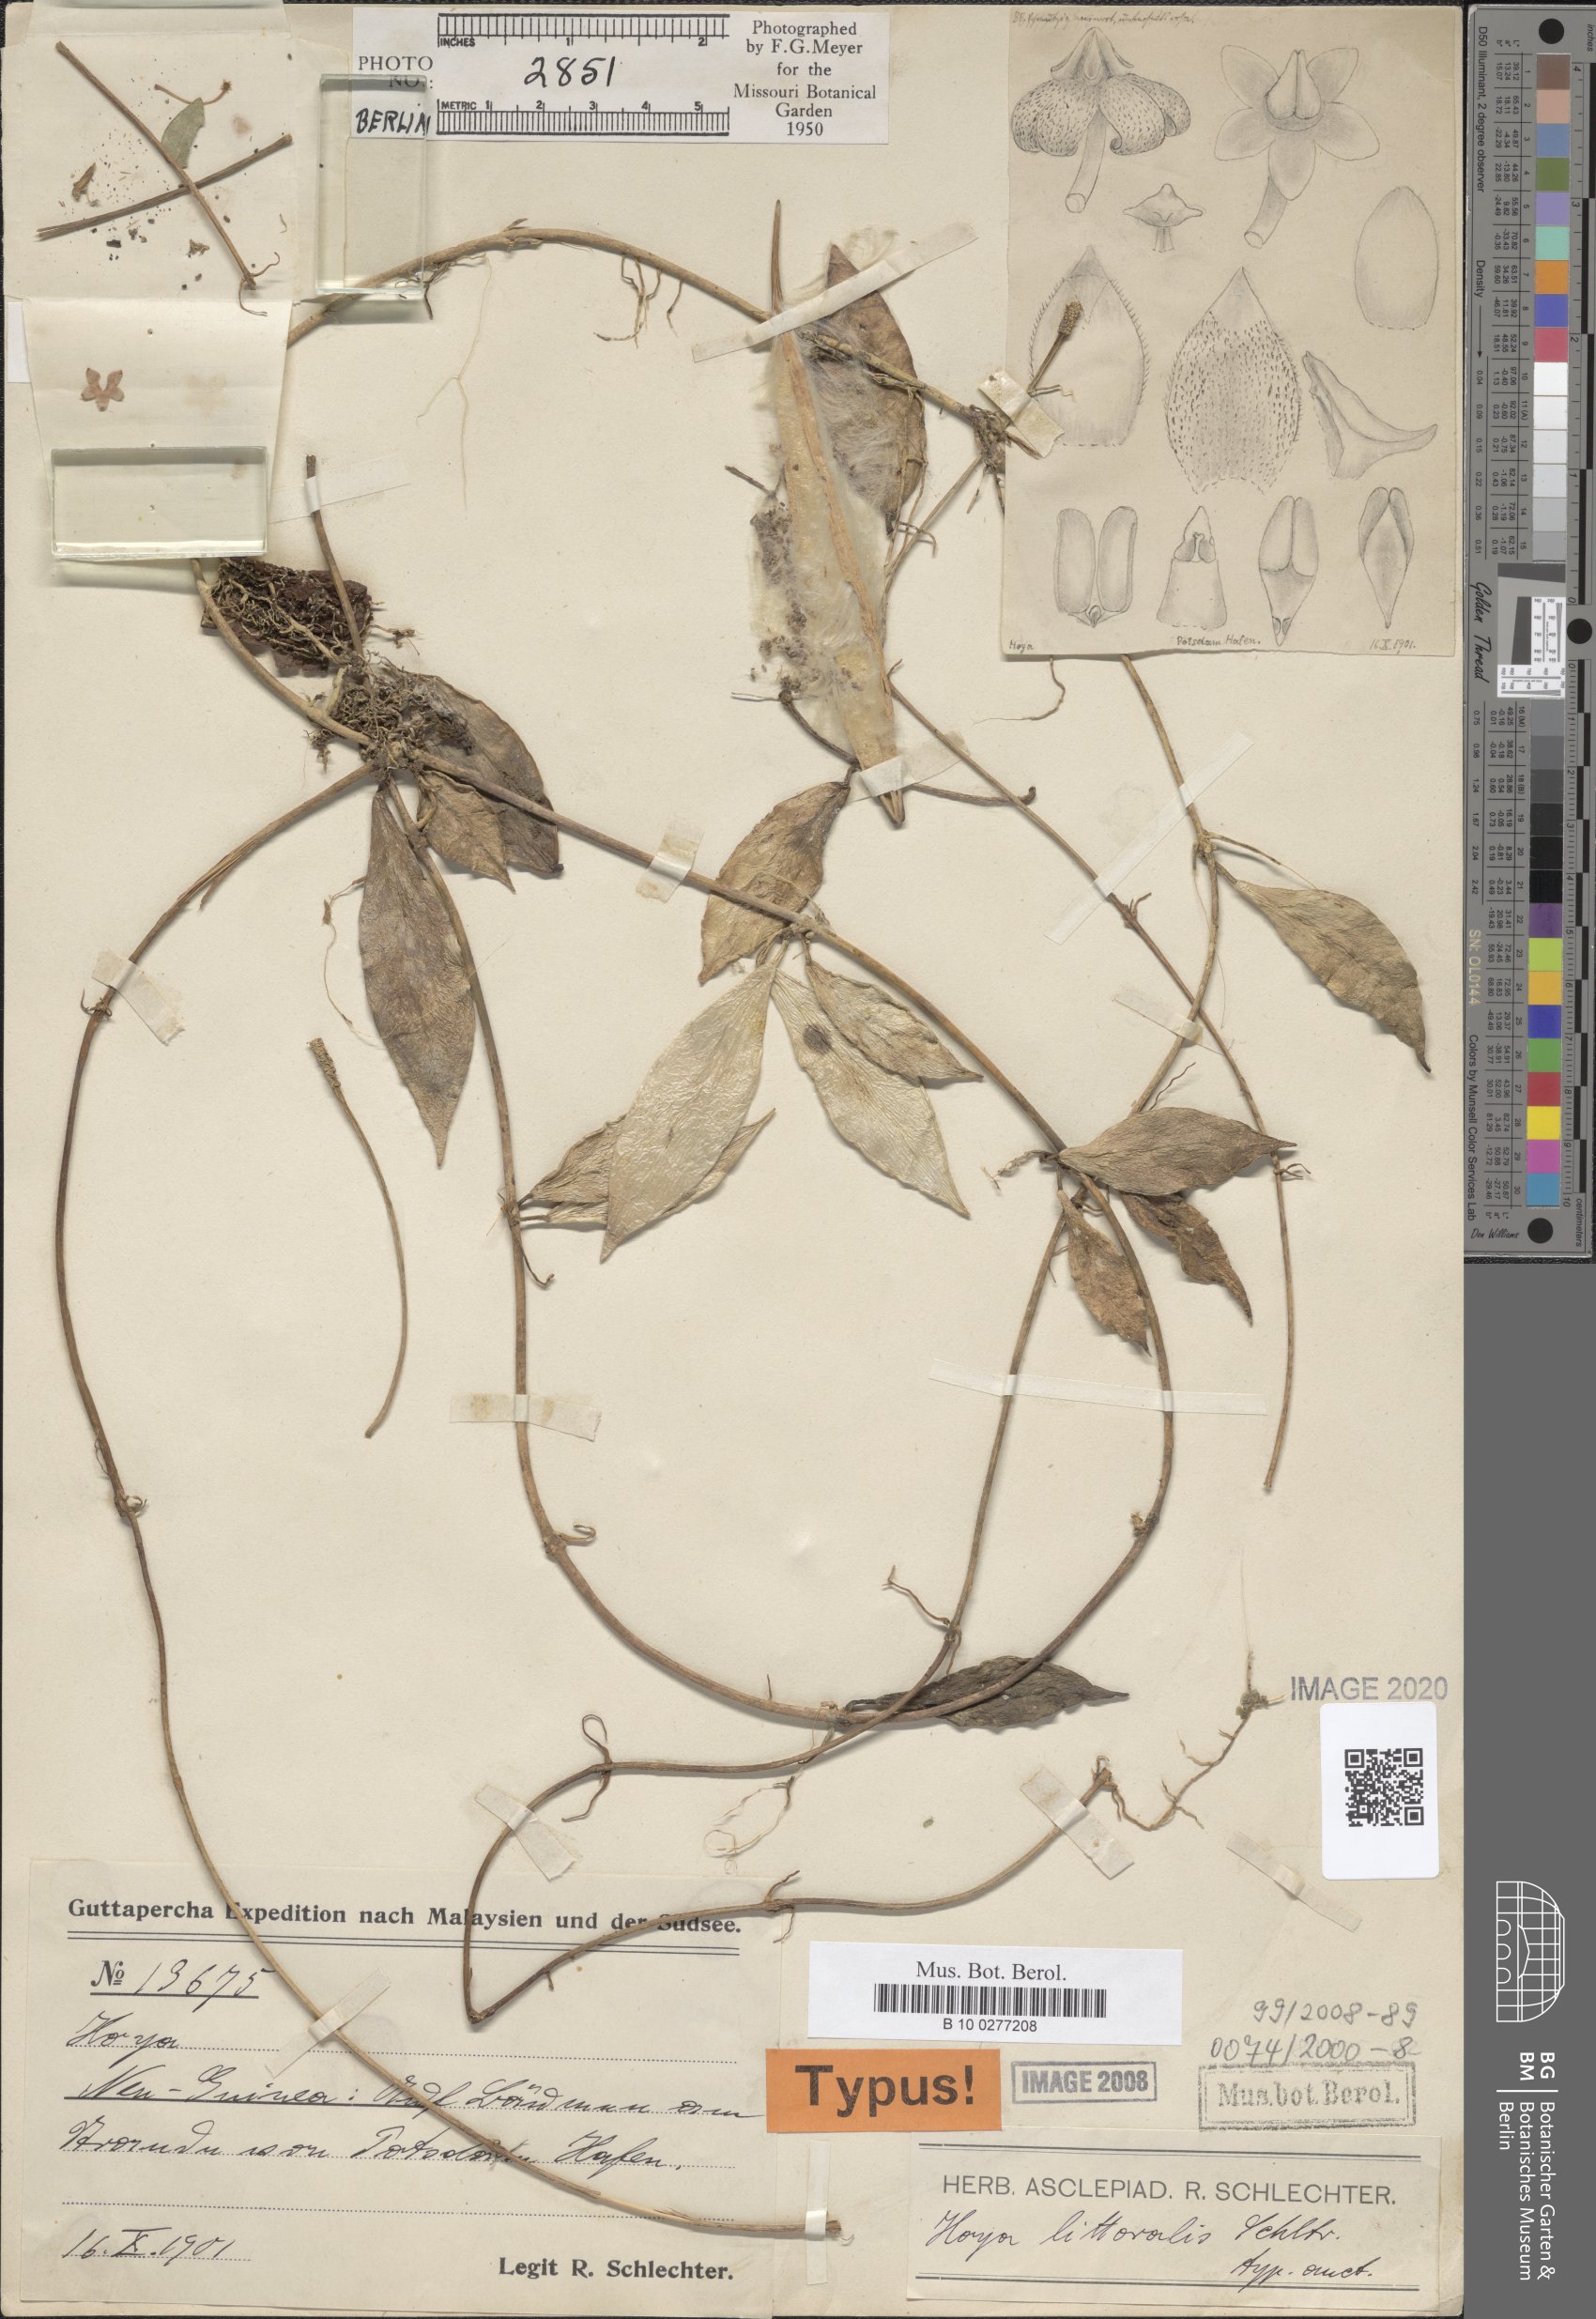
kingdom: Plantae
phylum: Tracheophyta
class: Magnoliopsida
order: Gentianales
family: Apocynaceae
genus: Hoya
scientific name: Hoya inconspicua
